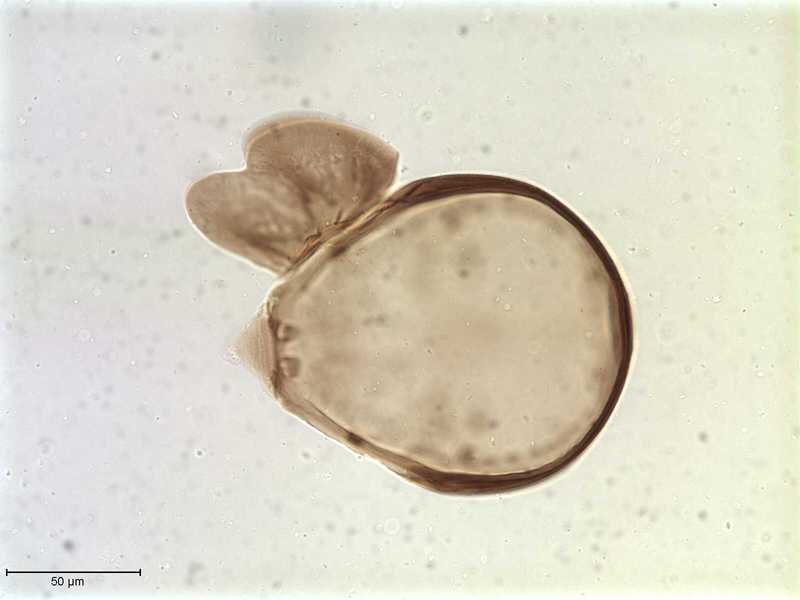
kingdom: Animalia
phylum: Arthropoda
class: Arachnida
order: Sarcoptiformes
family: Galumnidae
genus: Allogalumna
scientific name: Allogalumna exigua
